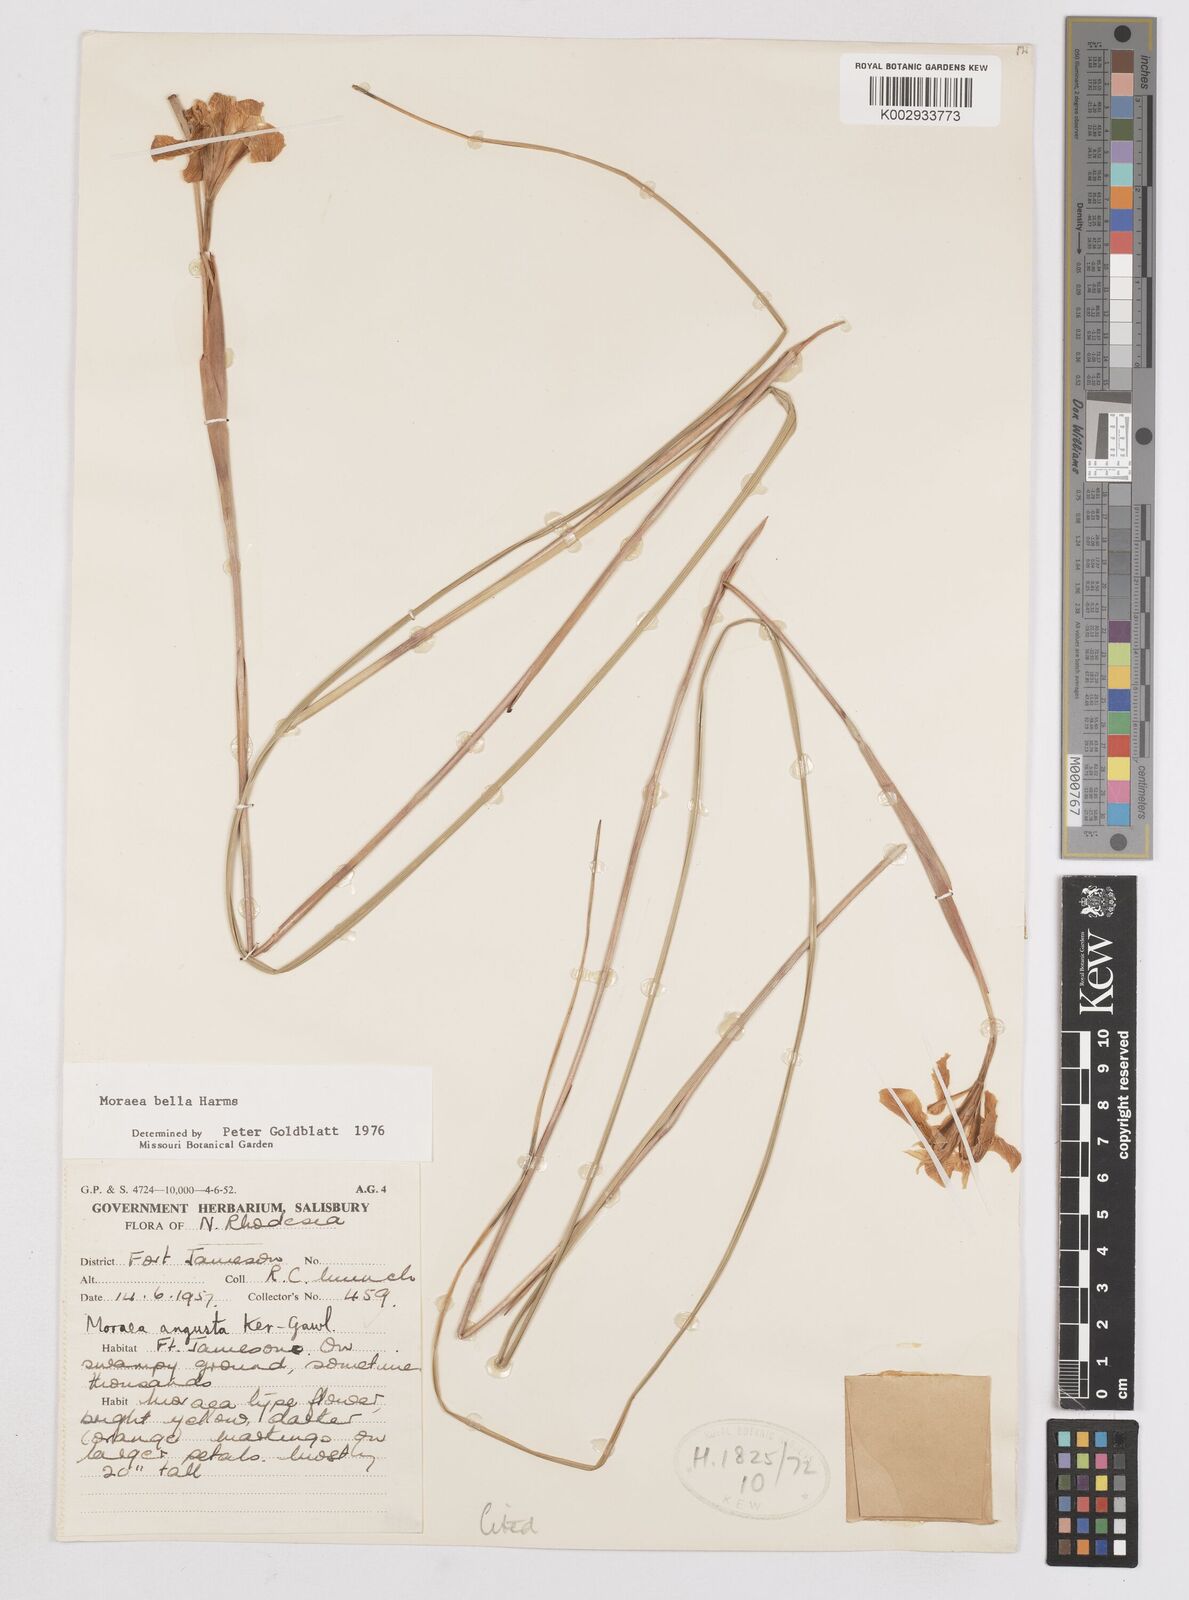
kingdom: Plantae
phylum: Tracheophyta
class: Liliopsida
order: Asparagales
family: Iridaceae
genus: Moraea
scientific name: Moraea bella
